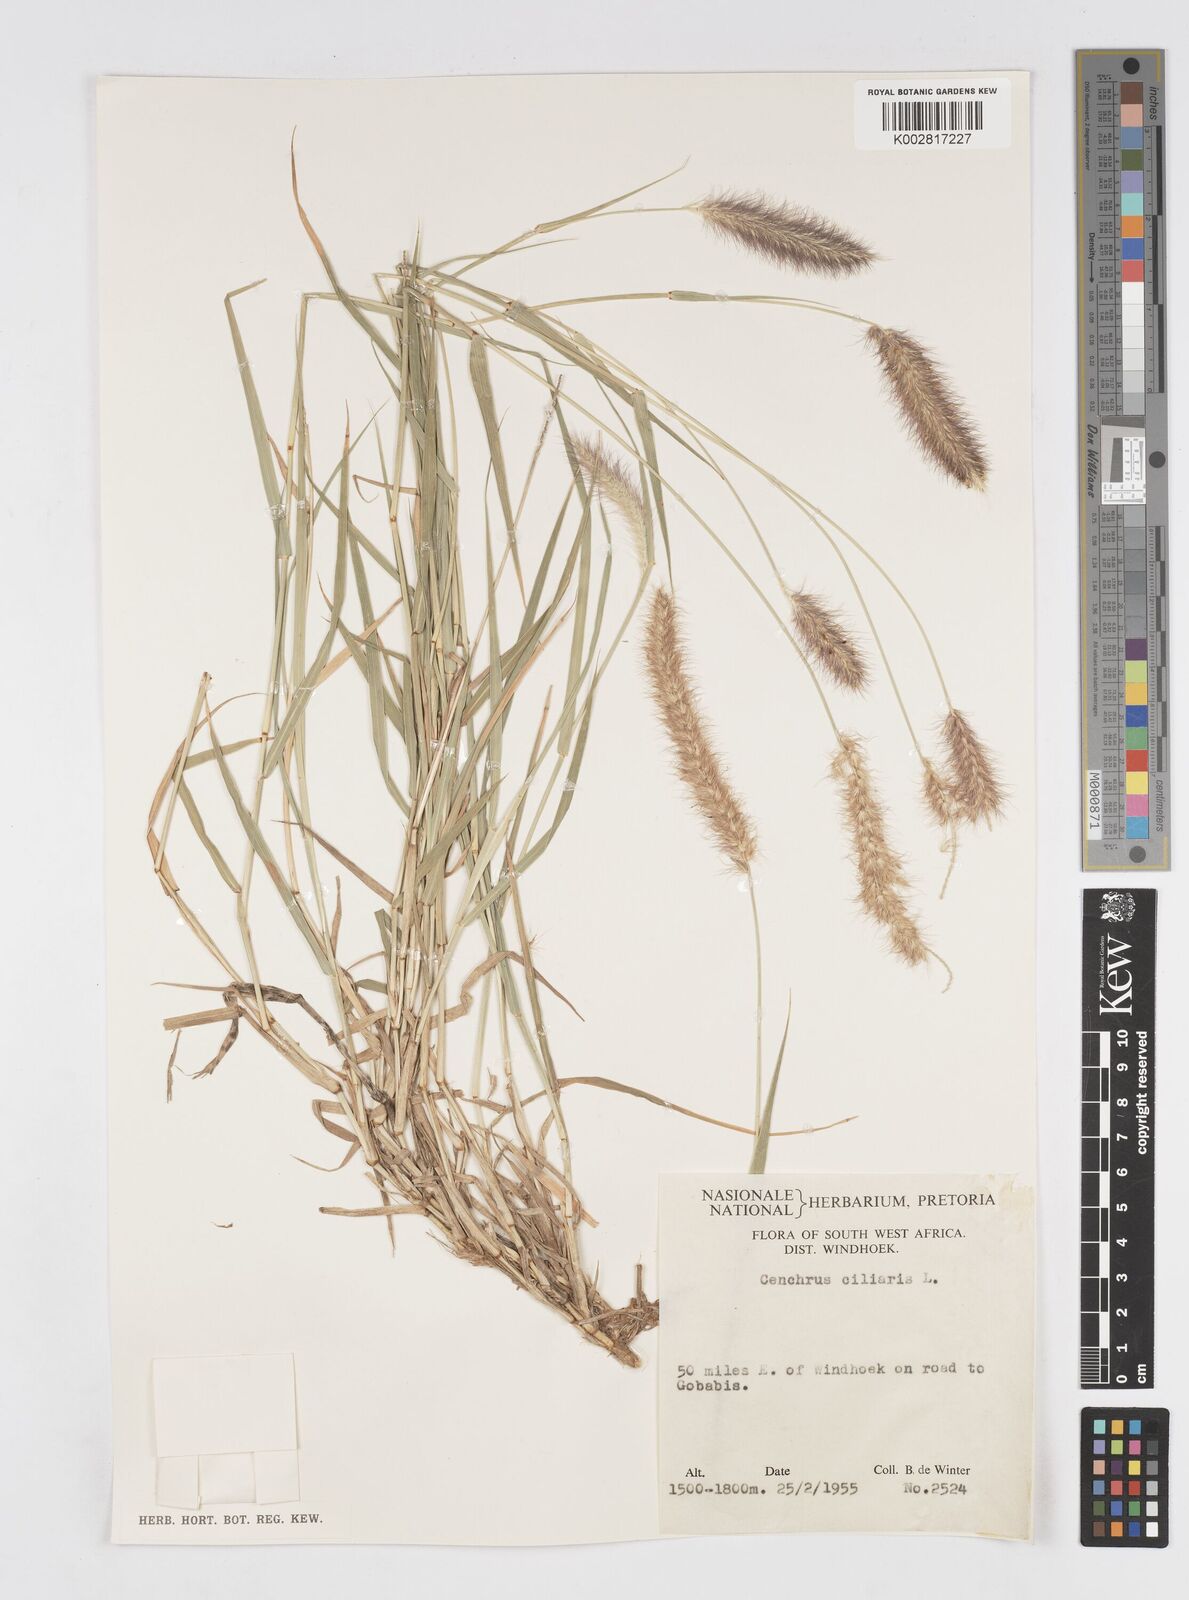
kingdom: Plantae
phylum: Tracheophyta
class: Liliopsida
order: Poales
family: Poaceae
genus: Cenchrus
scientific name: Cenchrus ciliaris
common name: Buffelgrass
